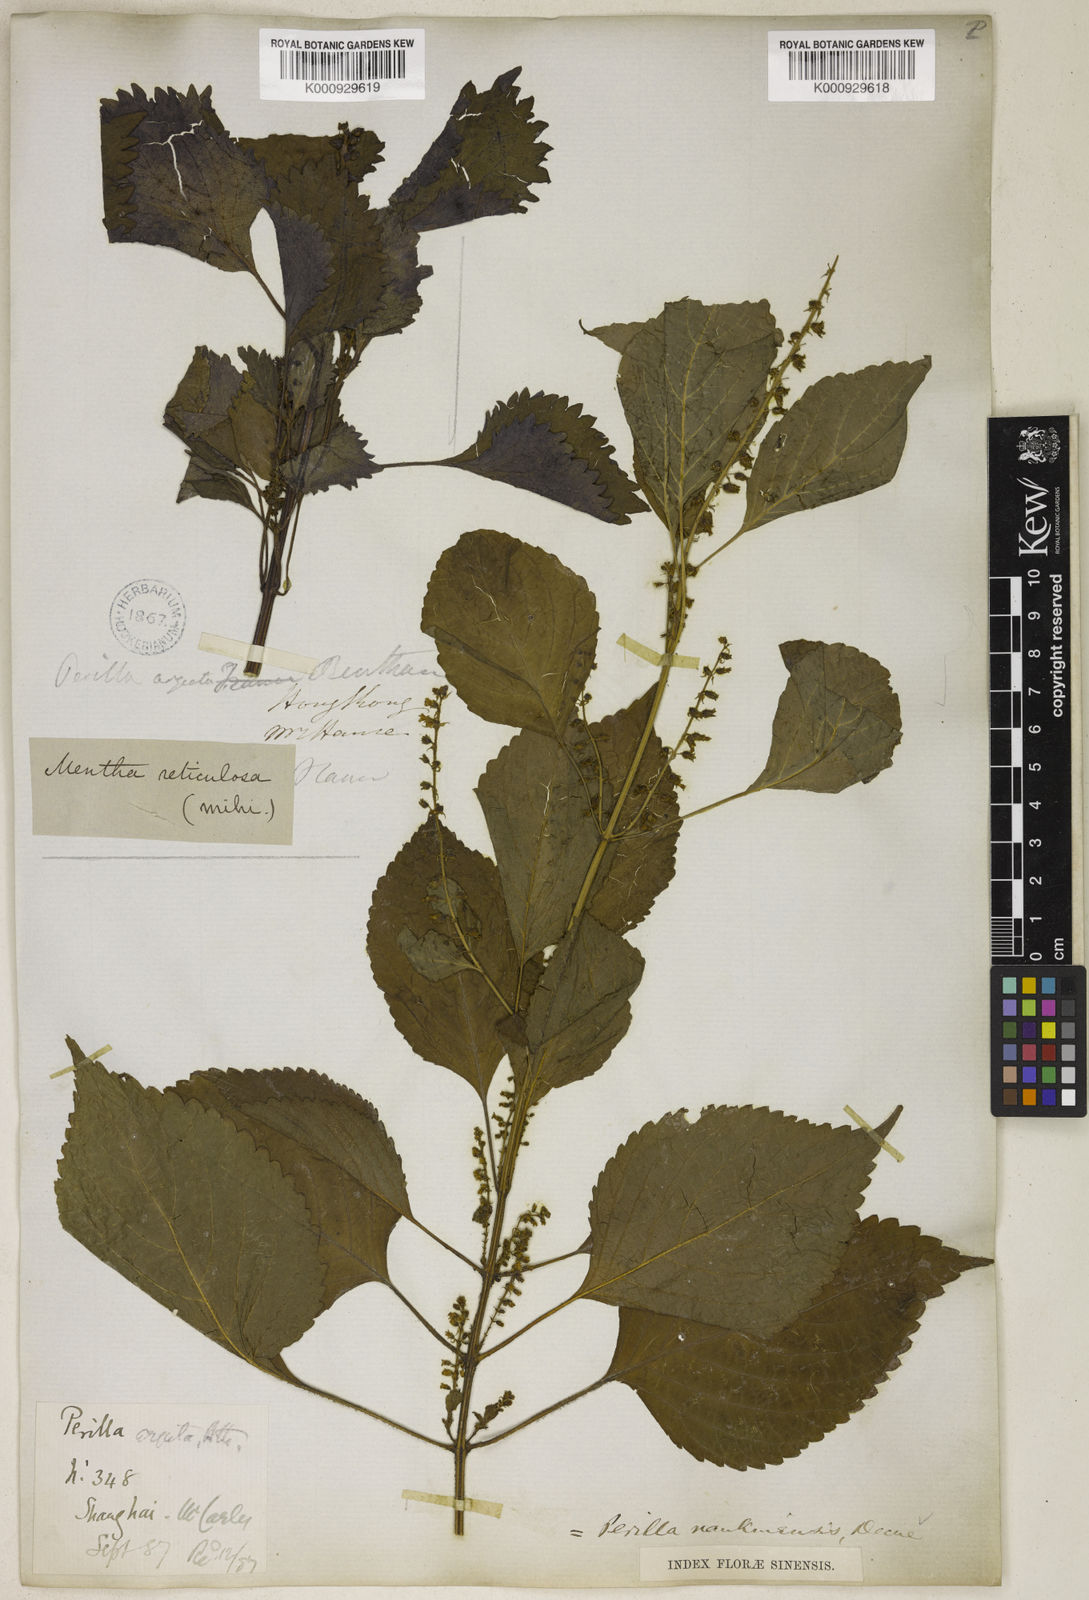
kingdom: Plantae
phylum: Tracheophyta
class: Magnoliopsida
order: Lamiales
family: Lamiaceae
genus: Perilla
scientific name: Perilla frutescens
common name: Perilla
